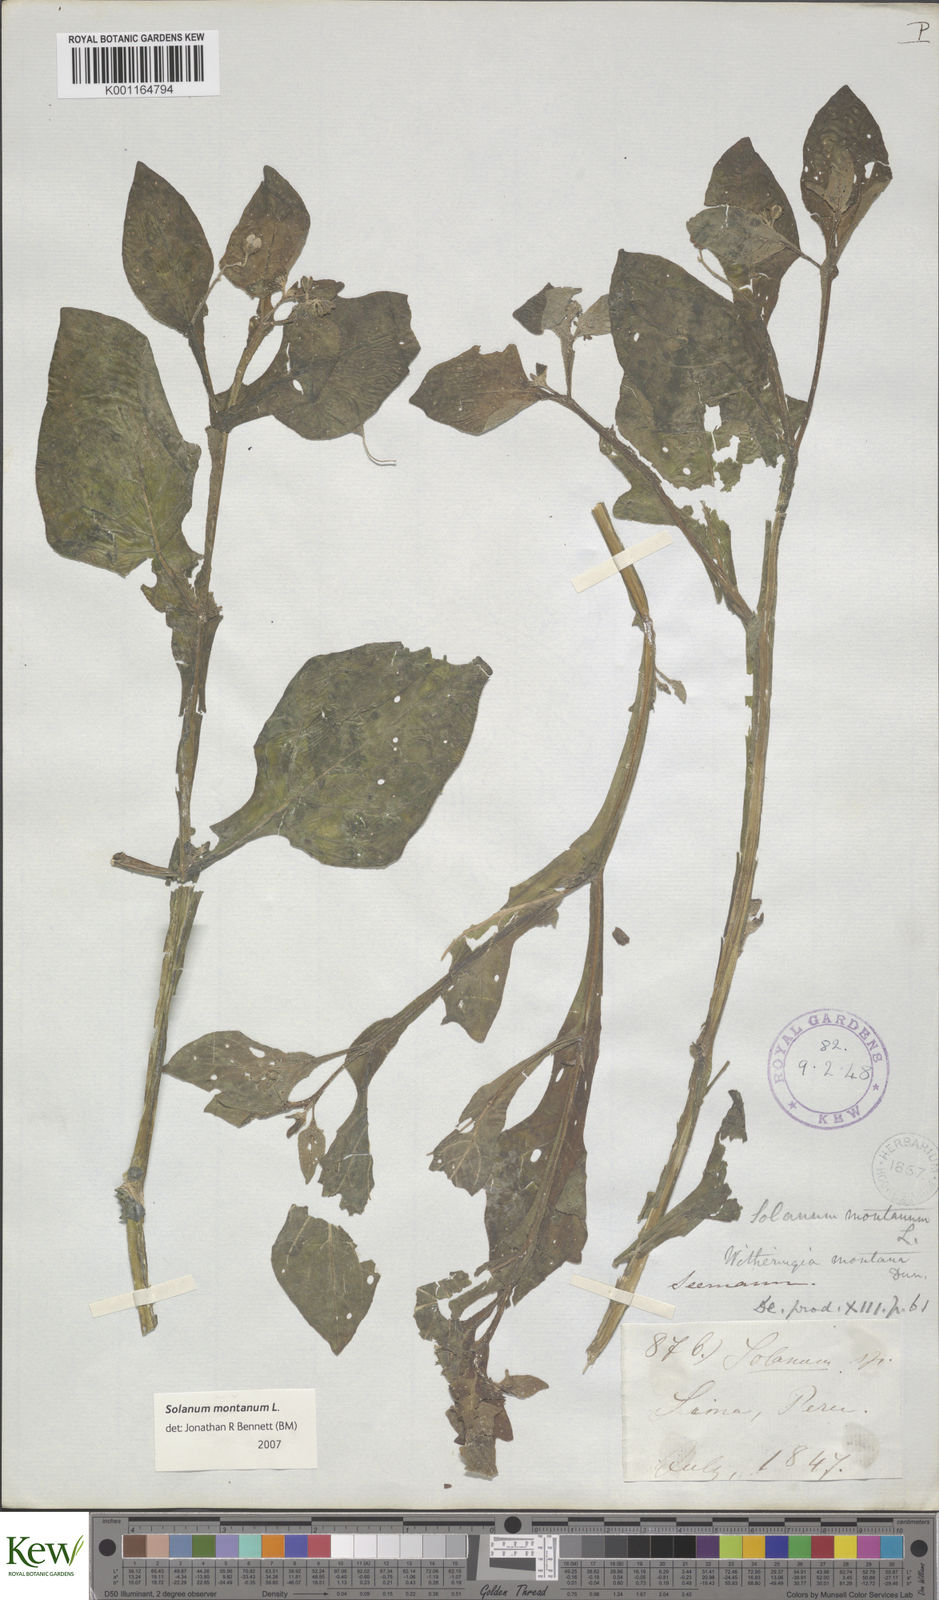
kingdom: Plantae
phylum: Tracheophyta
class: Magnoliopsida
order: Solanales
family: Solanaceae
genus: Solanum
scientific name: Solanum montanum
